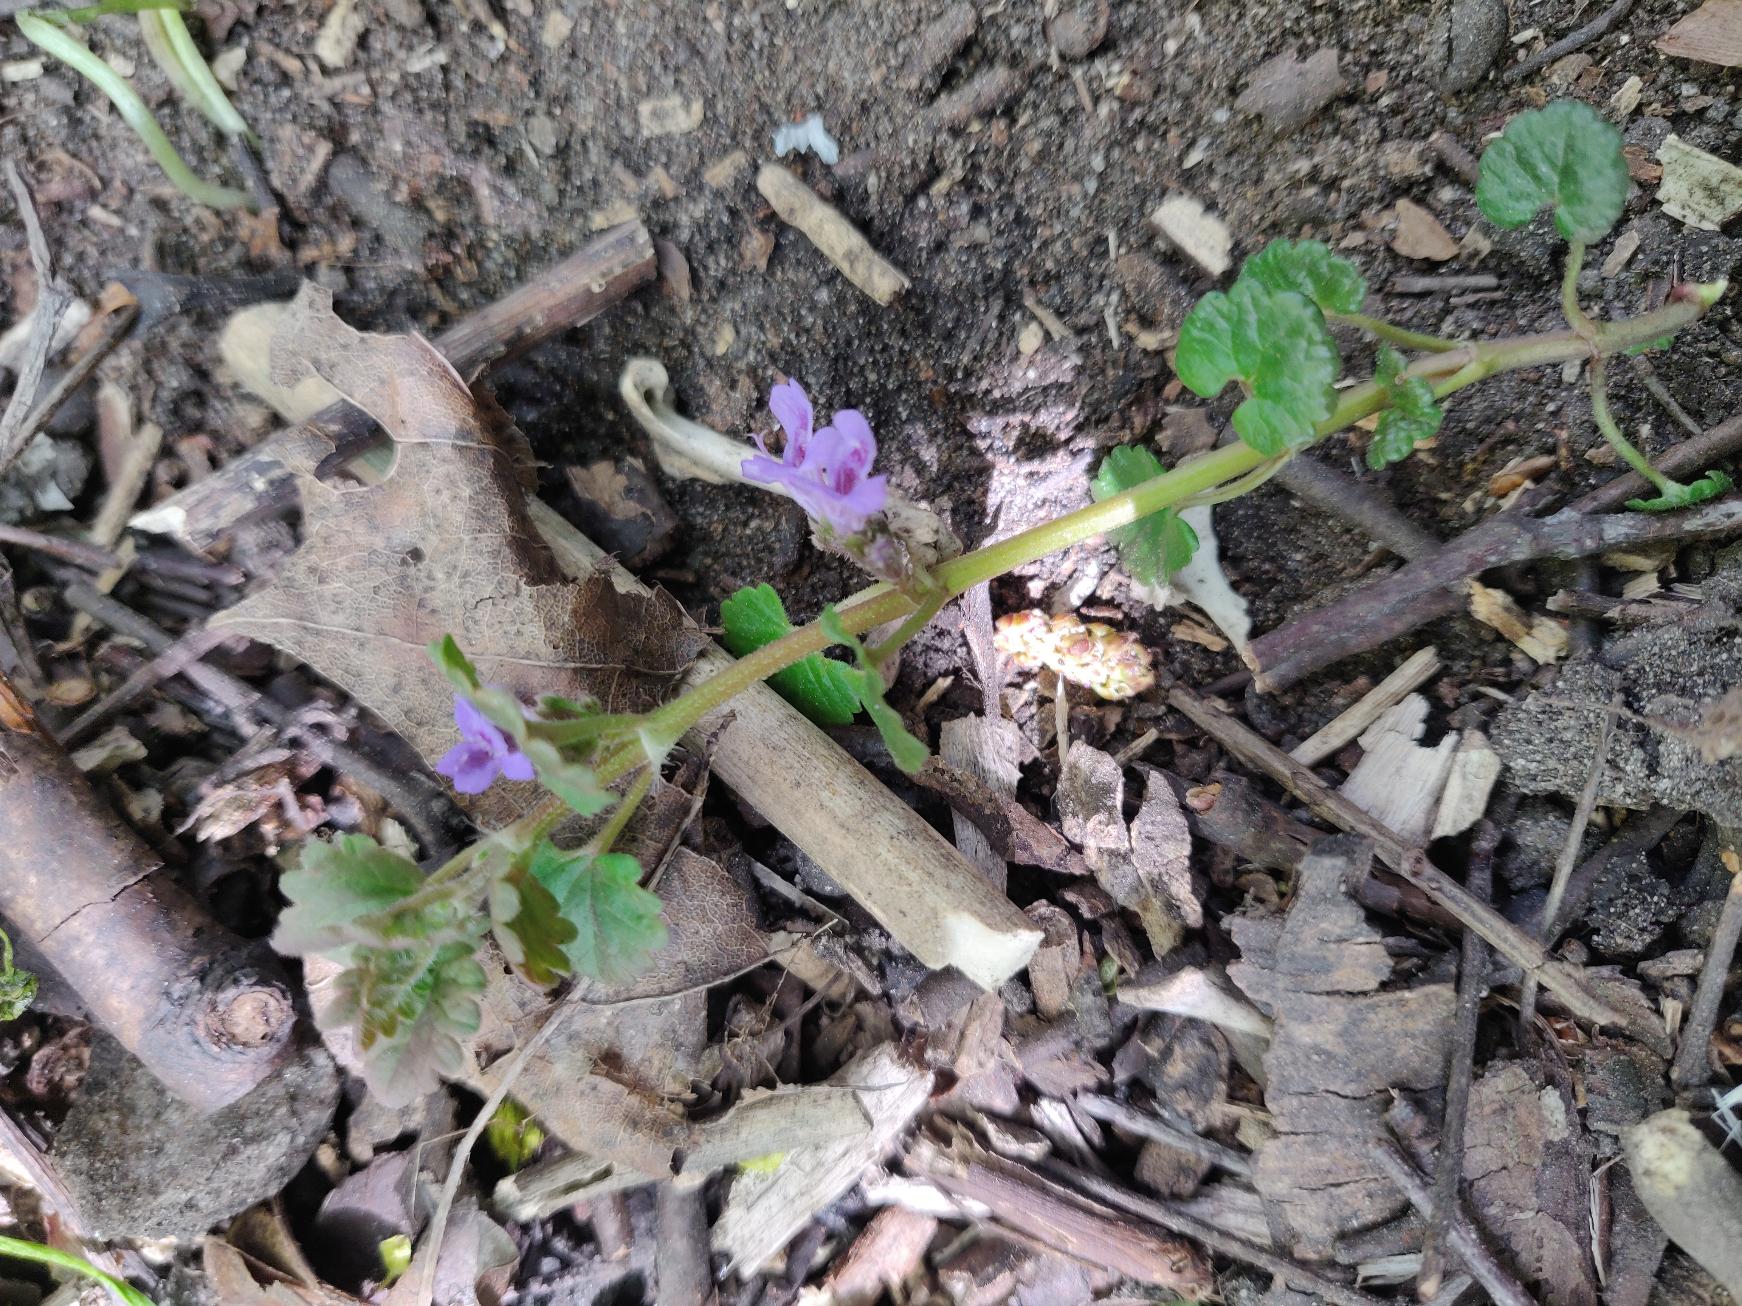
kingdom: Plantae
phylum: Tracheophyta
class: Magnoliopsida
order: Lamiales
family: Lamiaceae
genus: Glechoma
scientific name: Glechoma hederacea
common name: Korsknap
